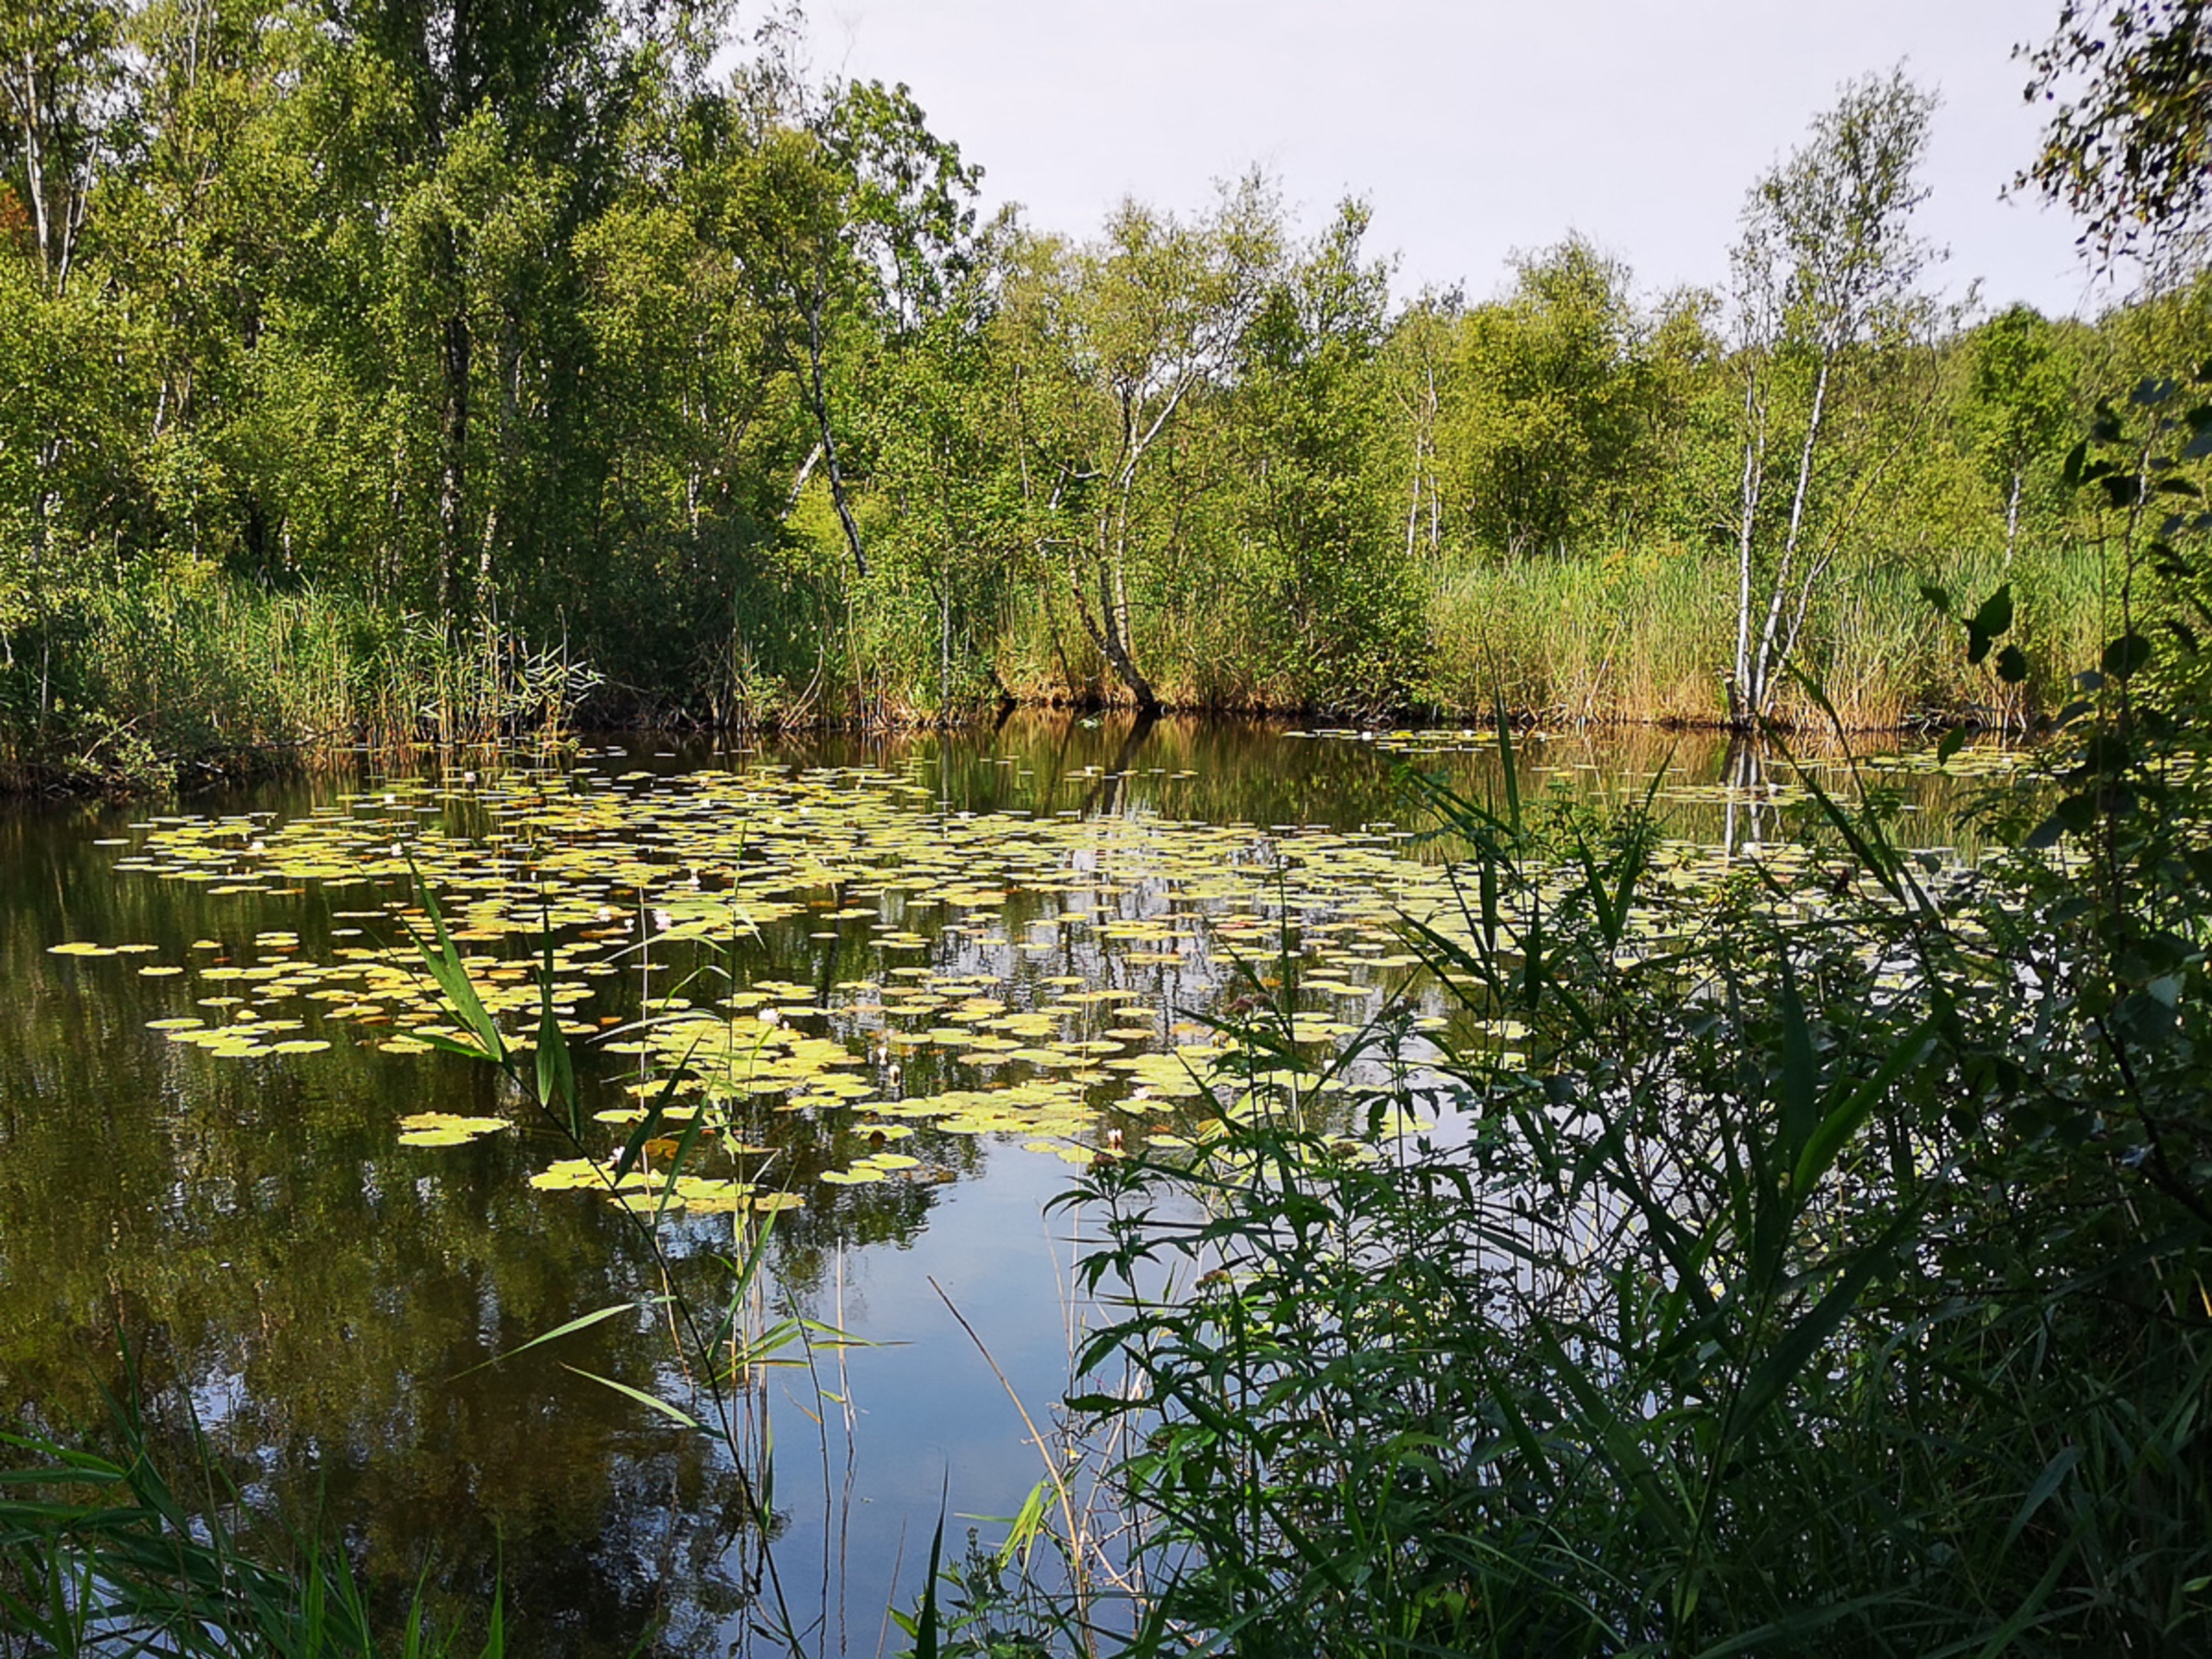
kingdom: Plantae
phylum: Tracheophyta
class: Magnoliopsida
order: Nymphaeales
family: Nymphaeaceae
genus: Nymphaea
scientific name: Nymphaea alba
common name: Hvid åkande
